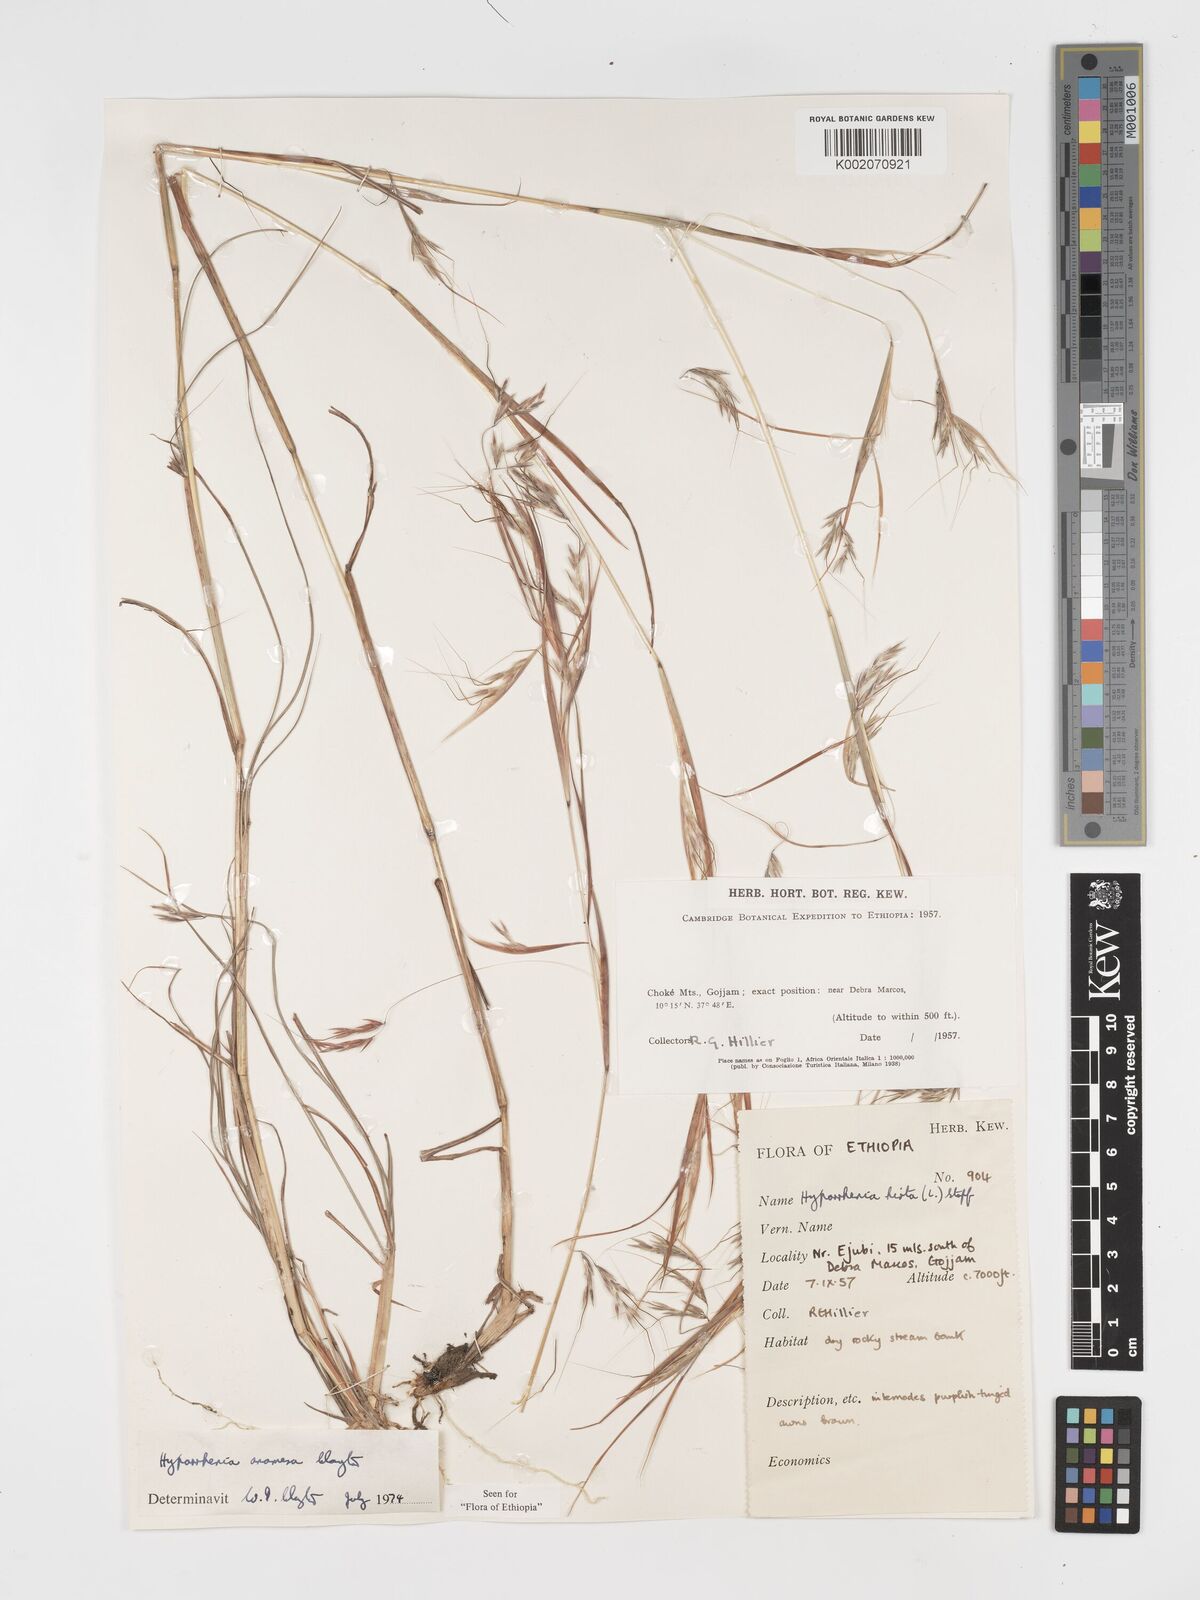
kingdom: Plantae
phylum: Tracheophyta
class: Liliopsida
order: Poales
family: Poaceae
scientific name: Poaceae
